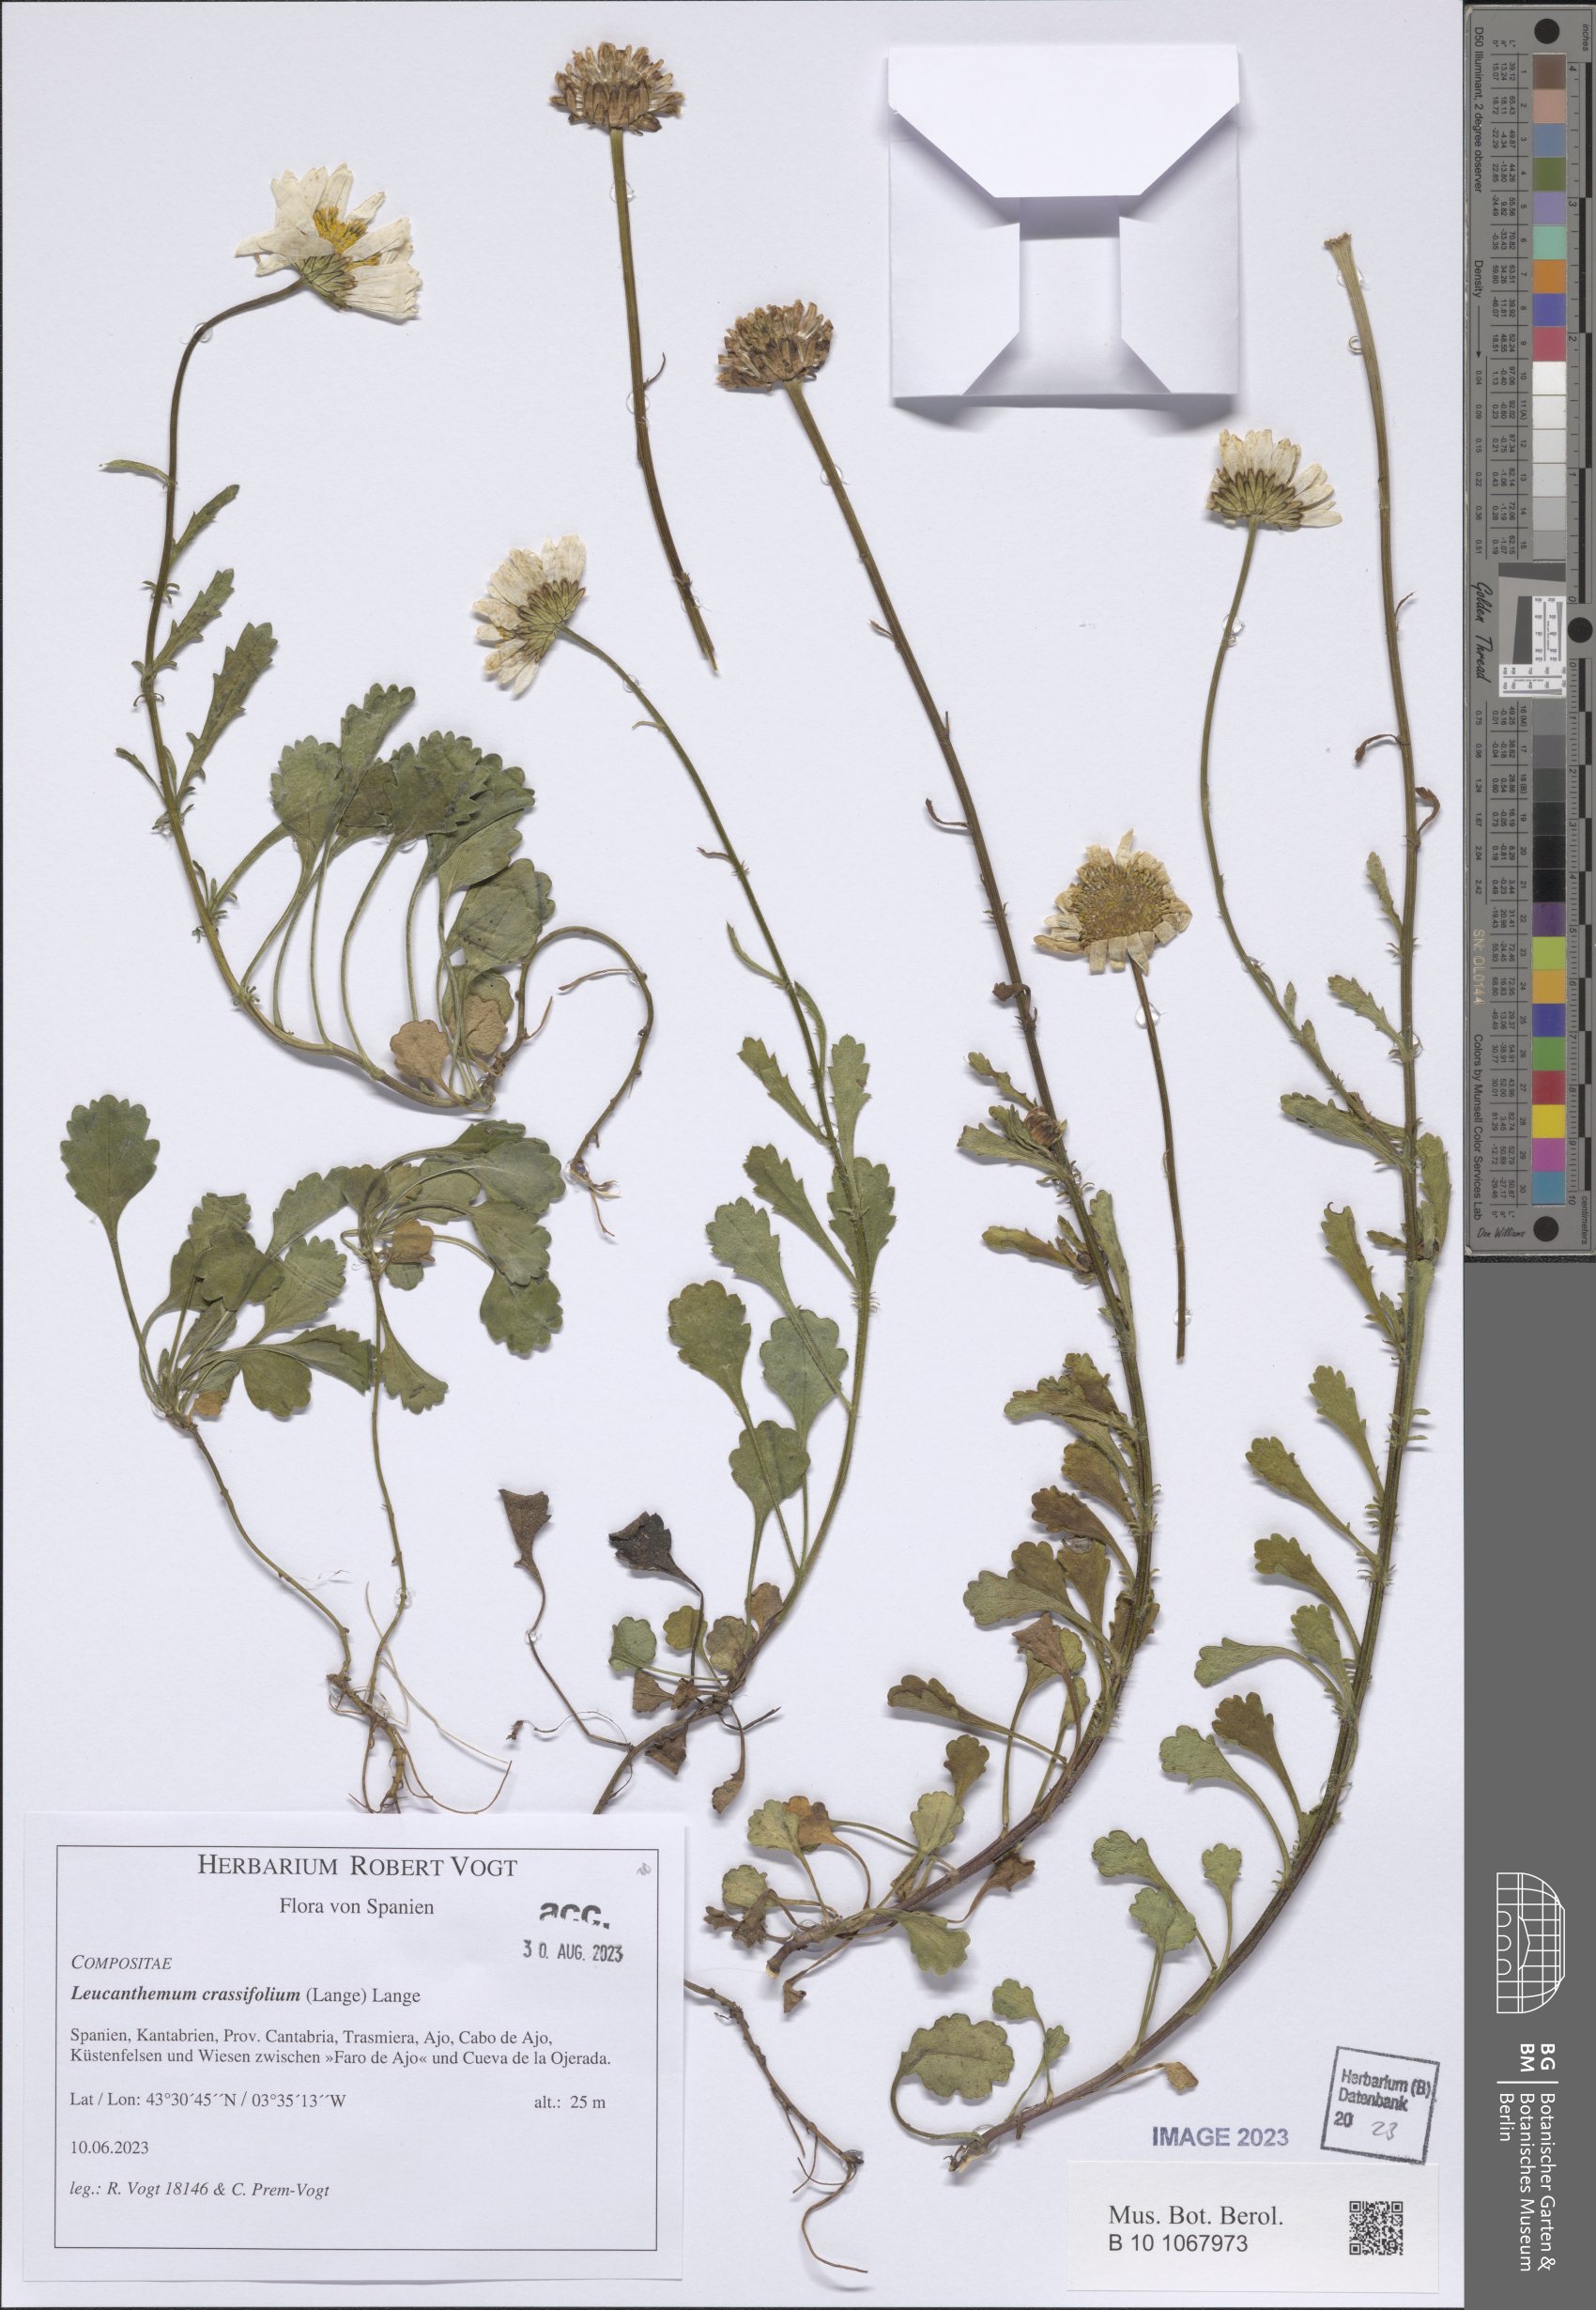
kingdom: Plantae
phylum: Tracheophyta
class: Magnoliopsida
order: Asterales
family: Asteraceae
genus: Leucanthemum
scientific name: Leucanthemum crassifolium
